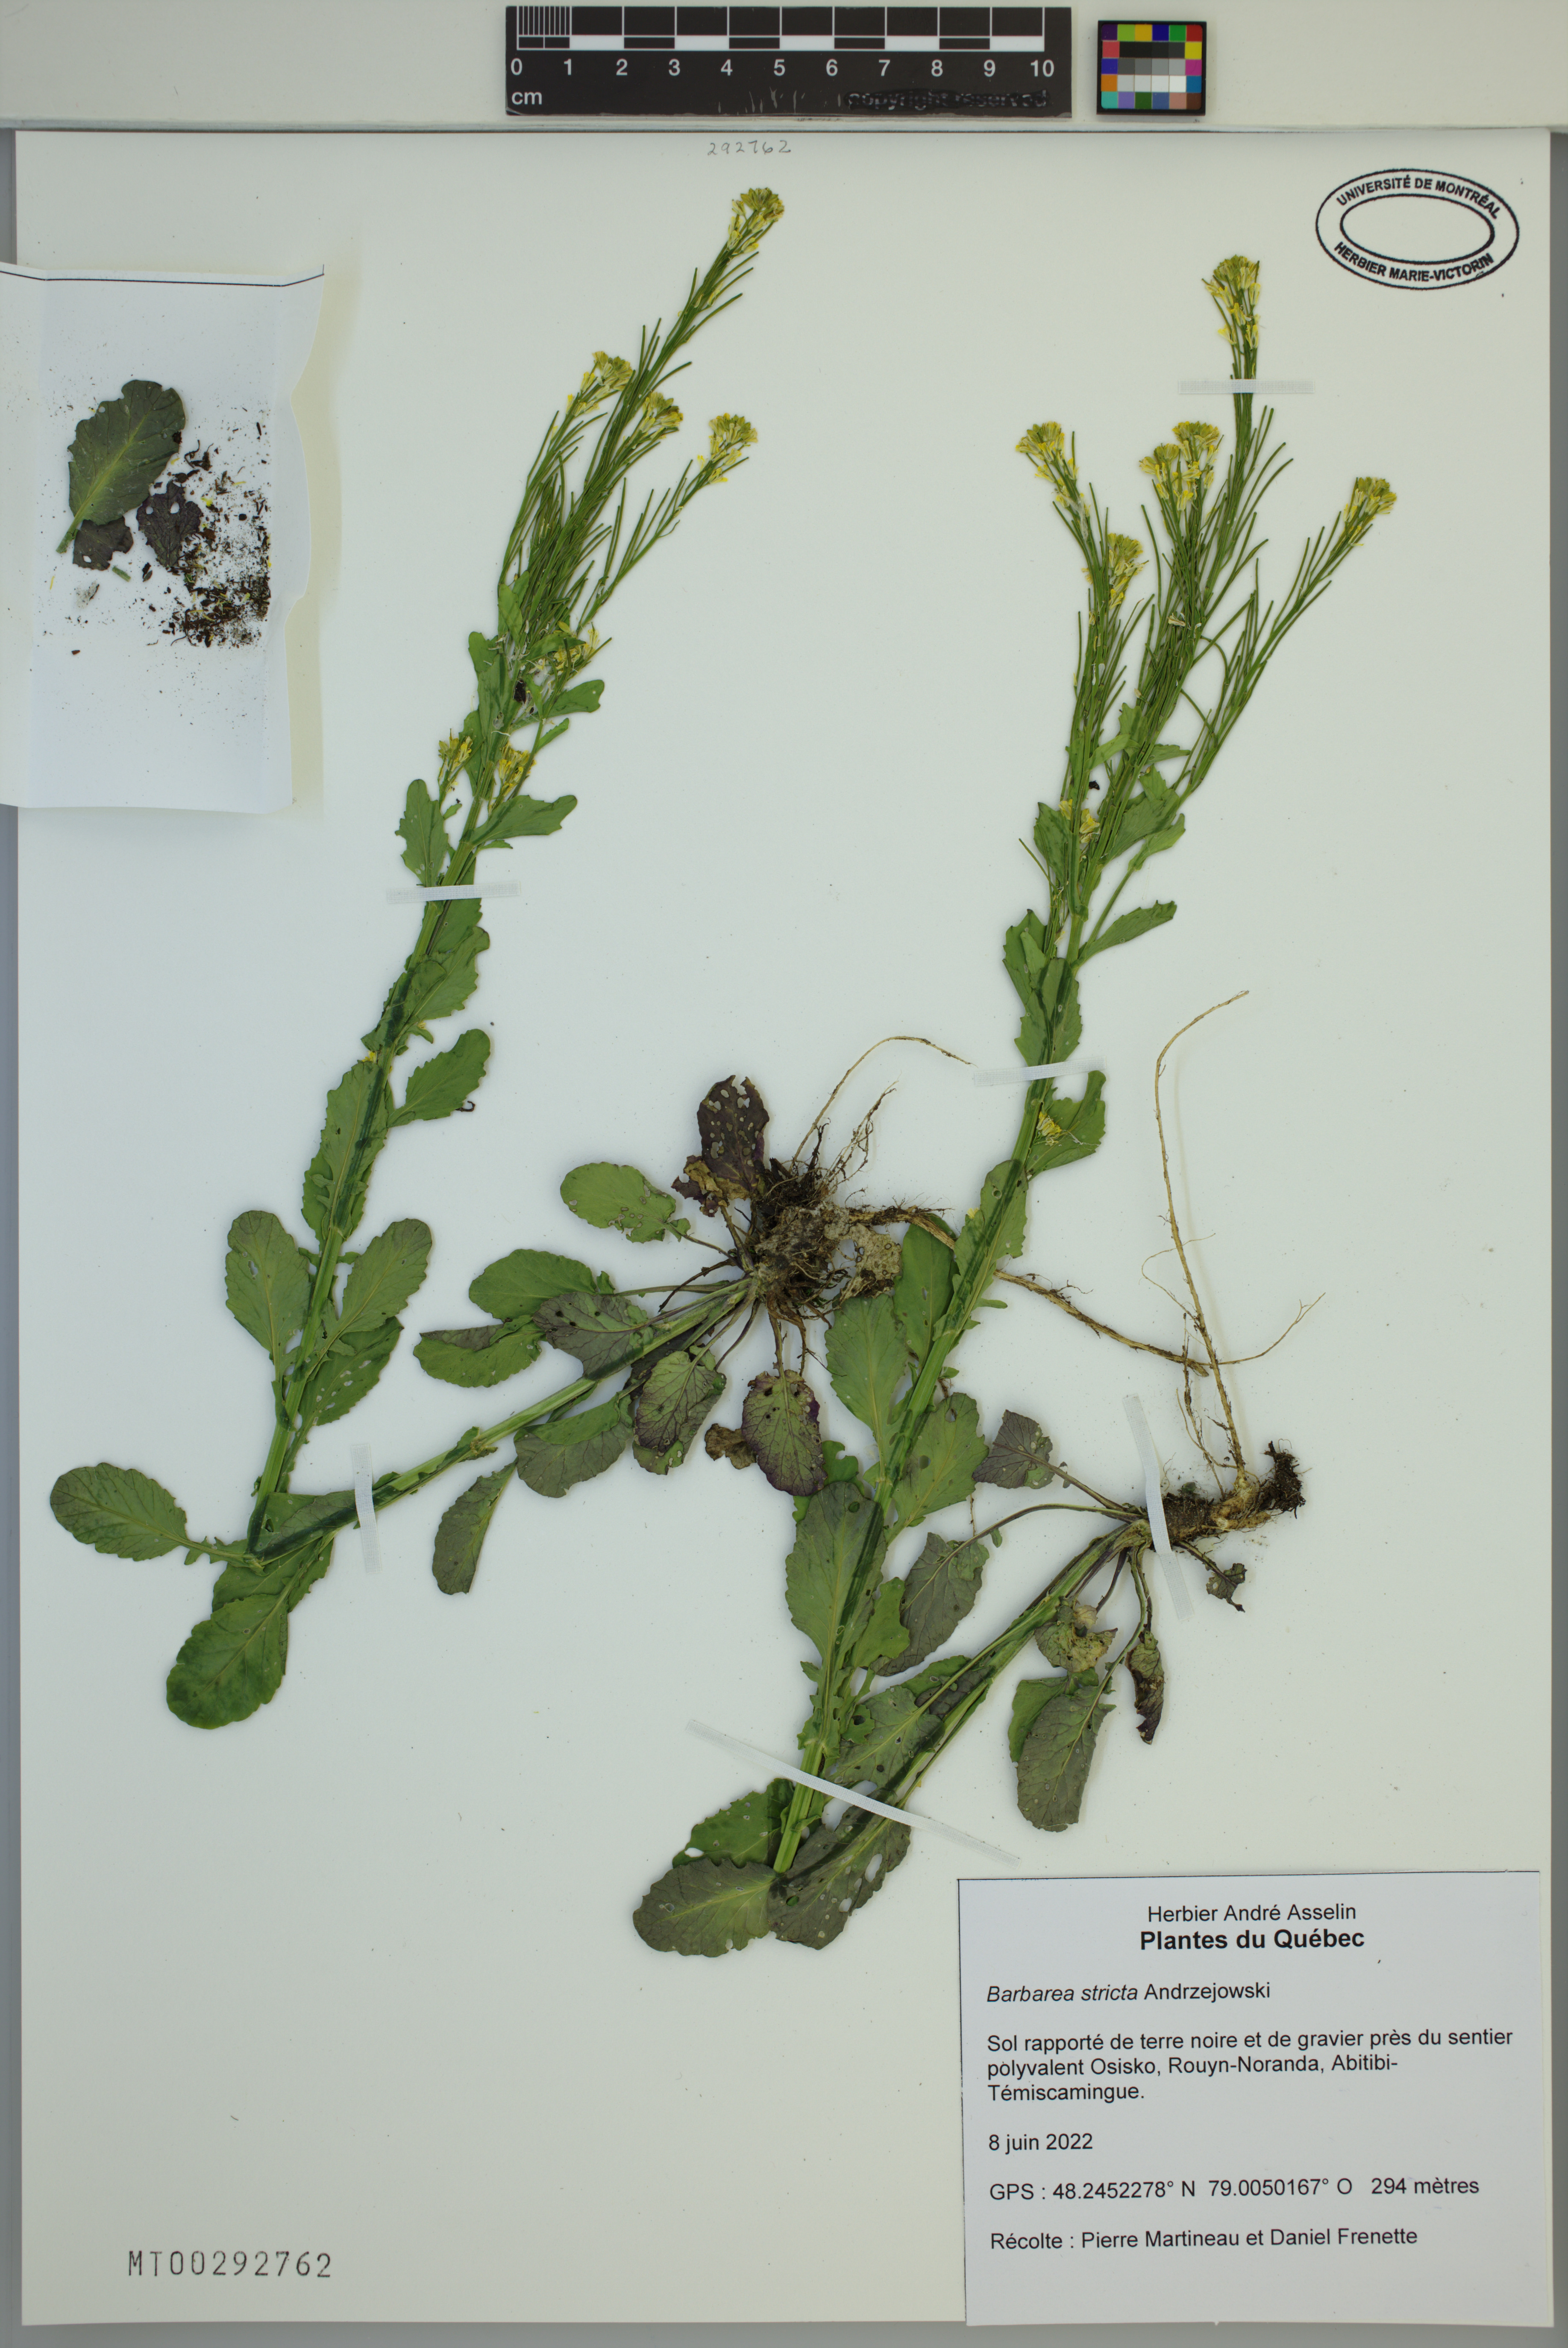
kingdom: Plantae
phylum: Tracheophyta
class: Magnoliopsida
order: Brassicales
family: Brassicaceae
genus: Barbarea
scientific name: Barbarea stricta
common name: Small-flowered winter-cress
